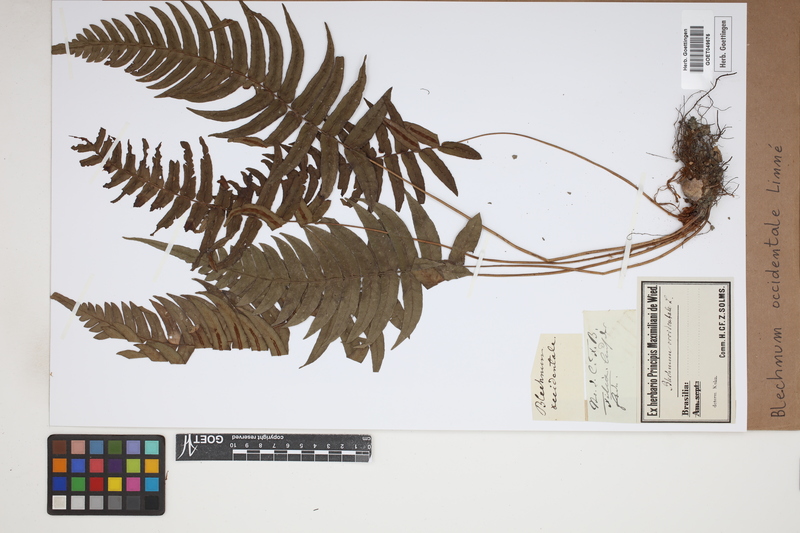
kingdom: Plantae
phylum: Tracheophyta
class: Polypodiopsida
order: Polypodiales
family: Blechnaceae
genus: Blechnum
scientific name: Blechnum occidentale
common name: Hammock fern
